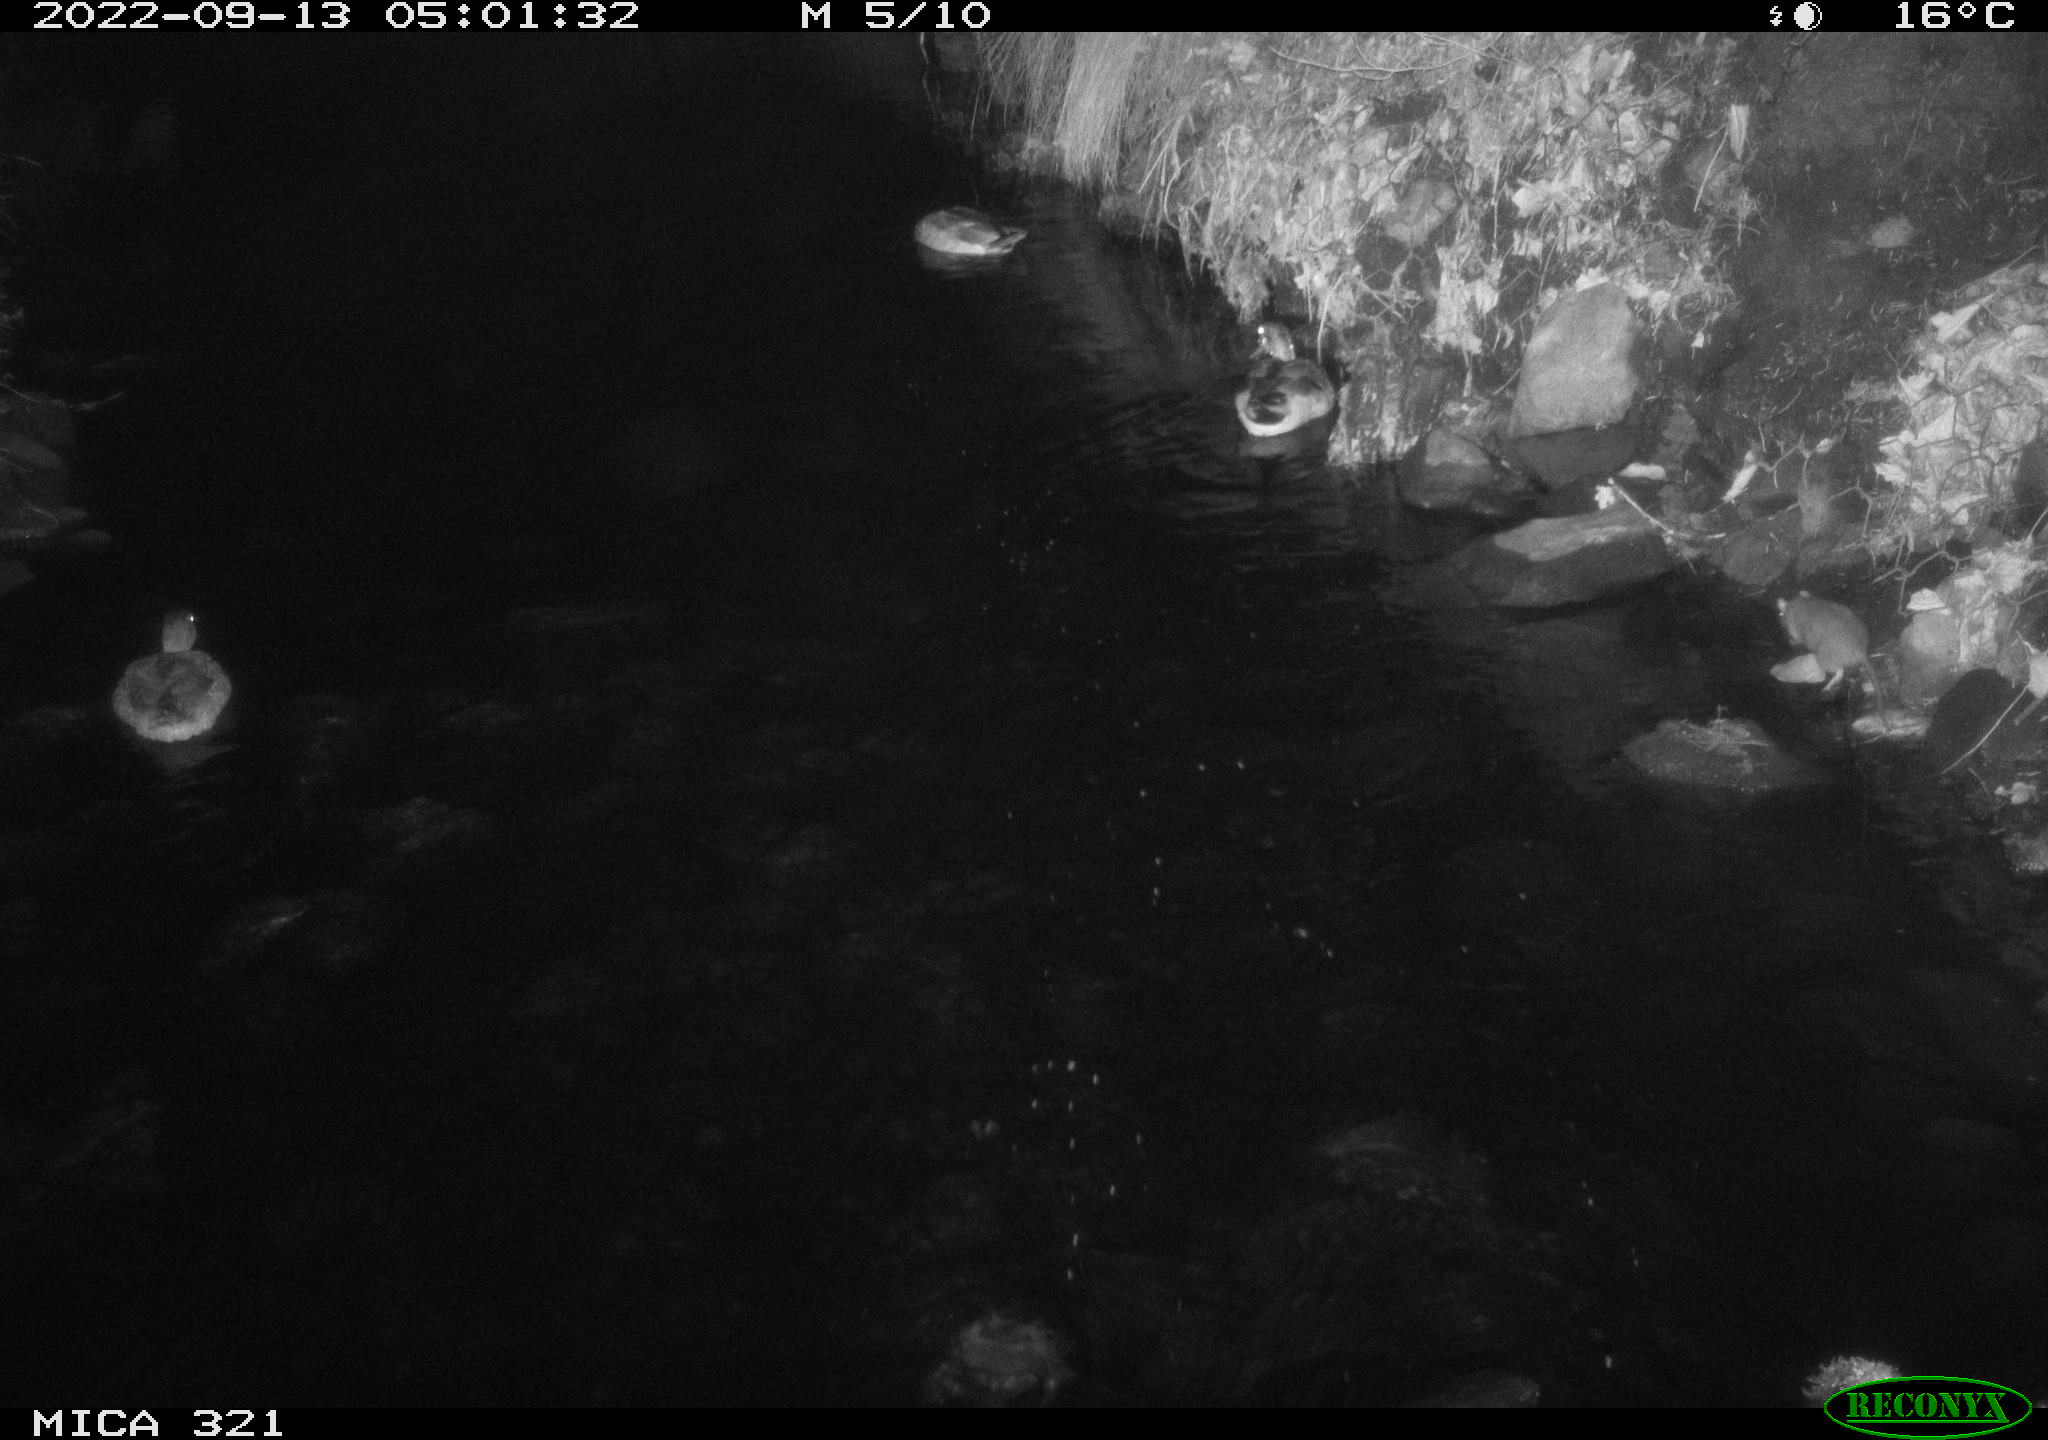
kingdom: Animalia
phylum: Chordata
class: Aves
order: Anseriformes
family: Anatidae
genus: Anas
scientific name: Anas
